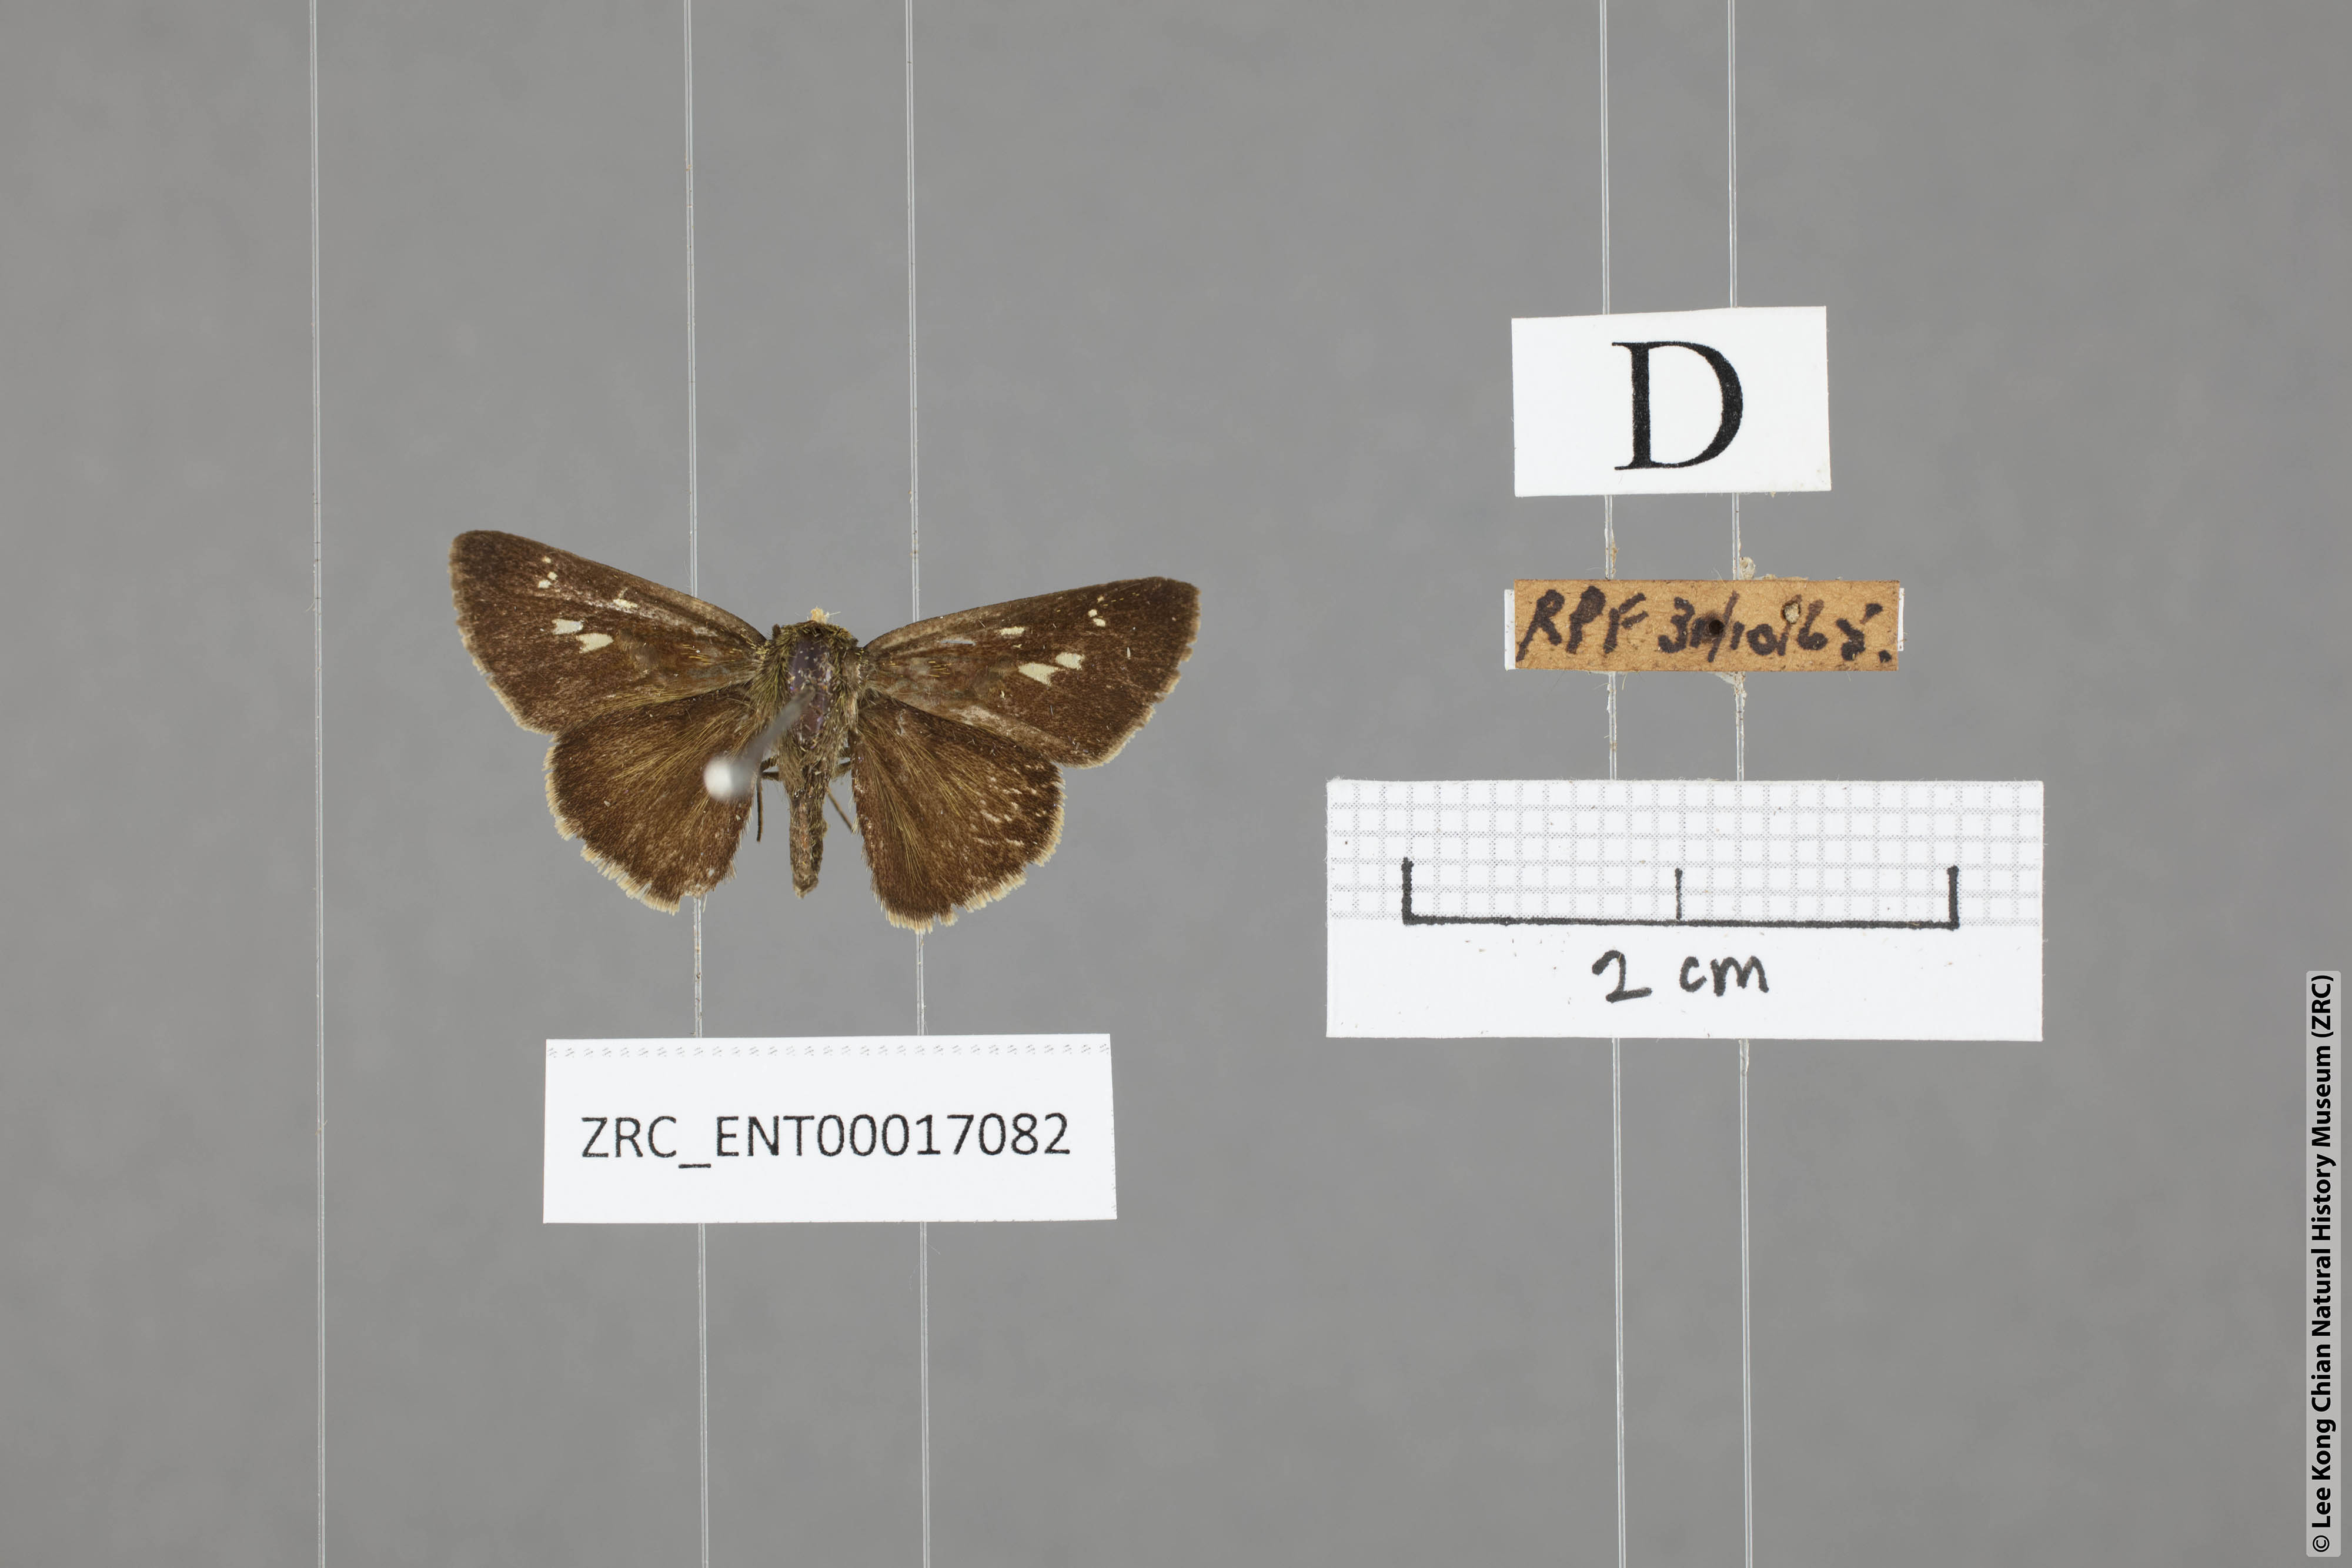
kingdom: Animalia
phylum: Arthropoda
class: Insecta
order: Lepidoptera
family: Hesperiidae
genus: Halpe
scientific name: Halpe veluvana
